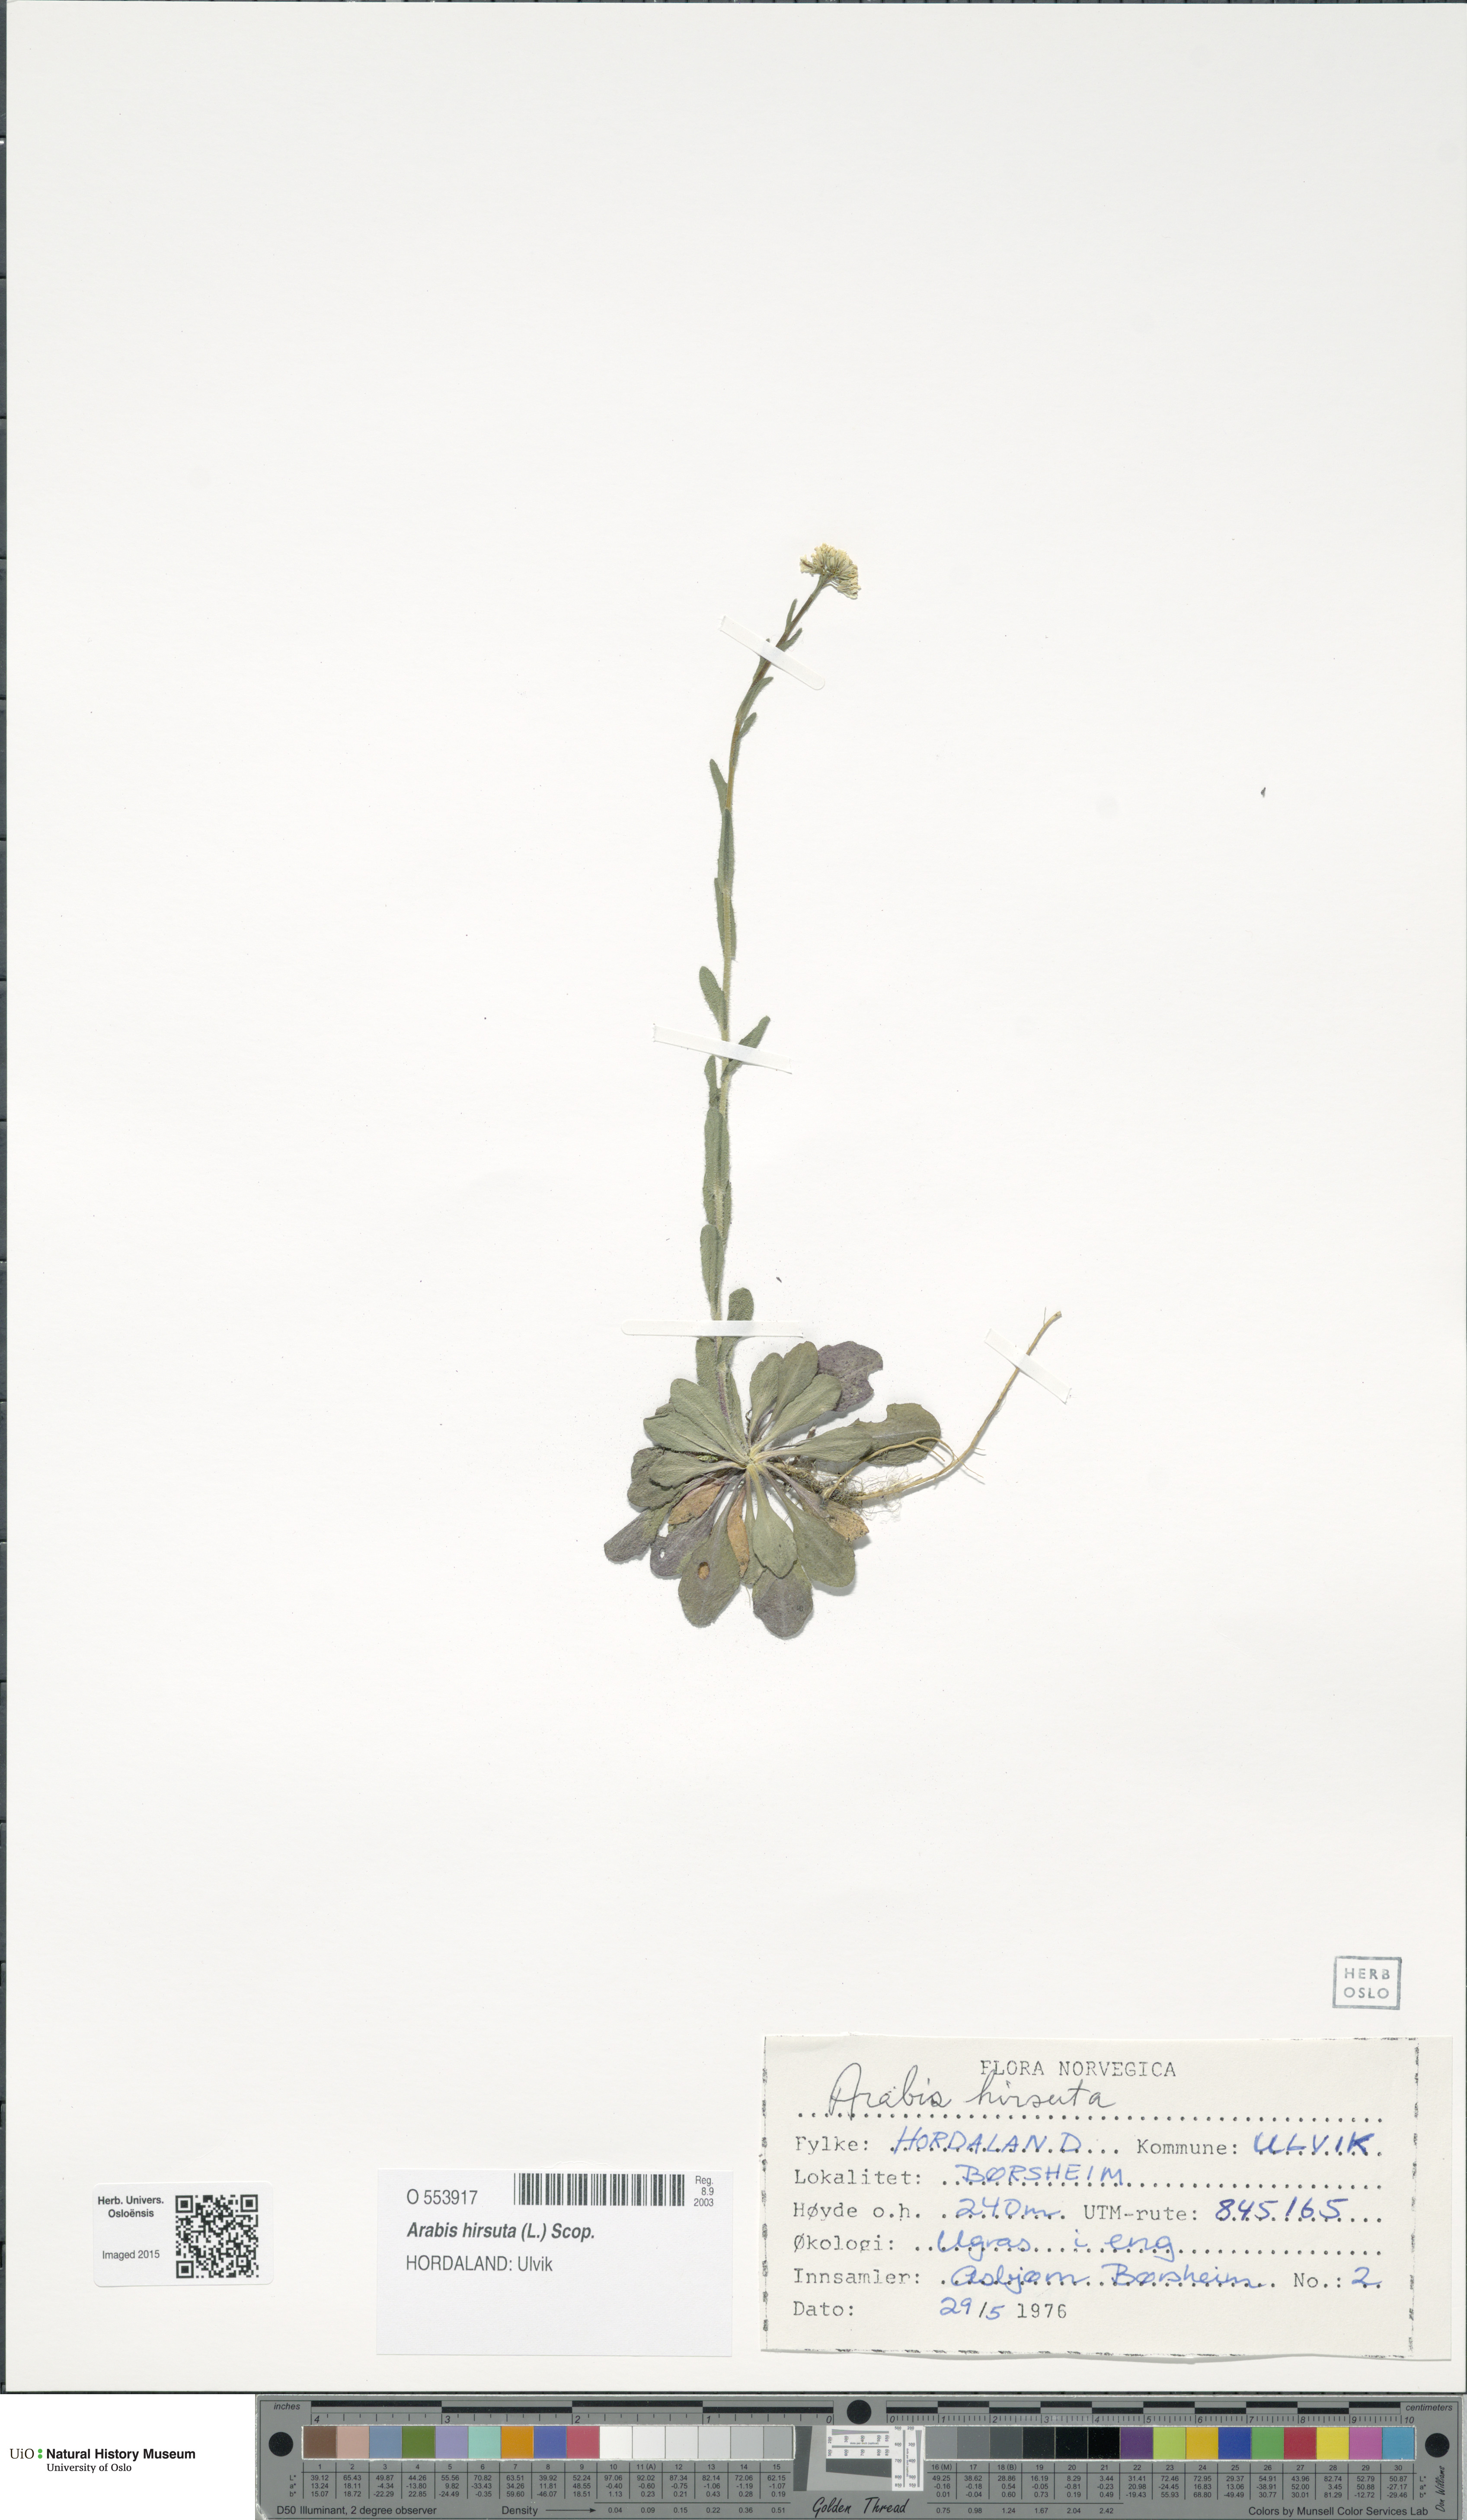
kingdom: Plantae
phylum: Tracheophyta
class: Magnoliopsida
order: Brassicales
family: Brassicaceae
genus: Arabis
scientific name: Arabis hirsuta
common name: Hairy rock-cress
